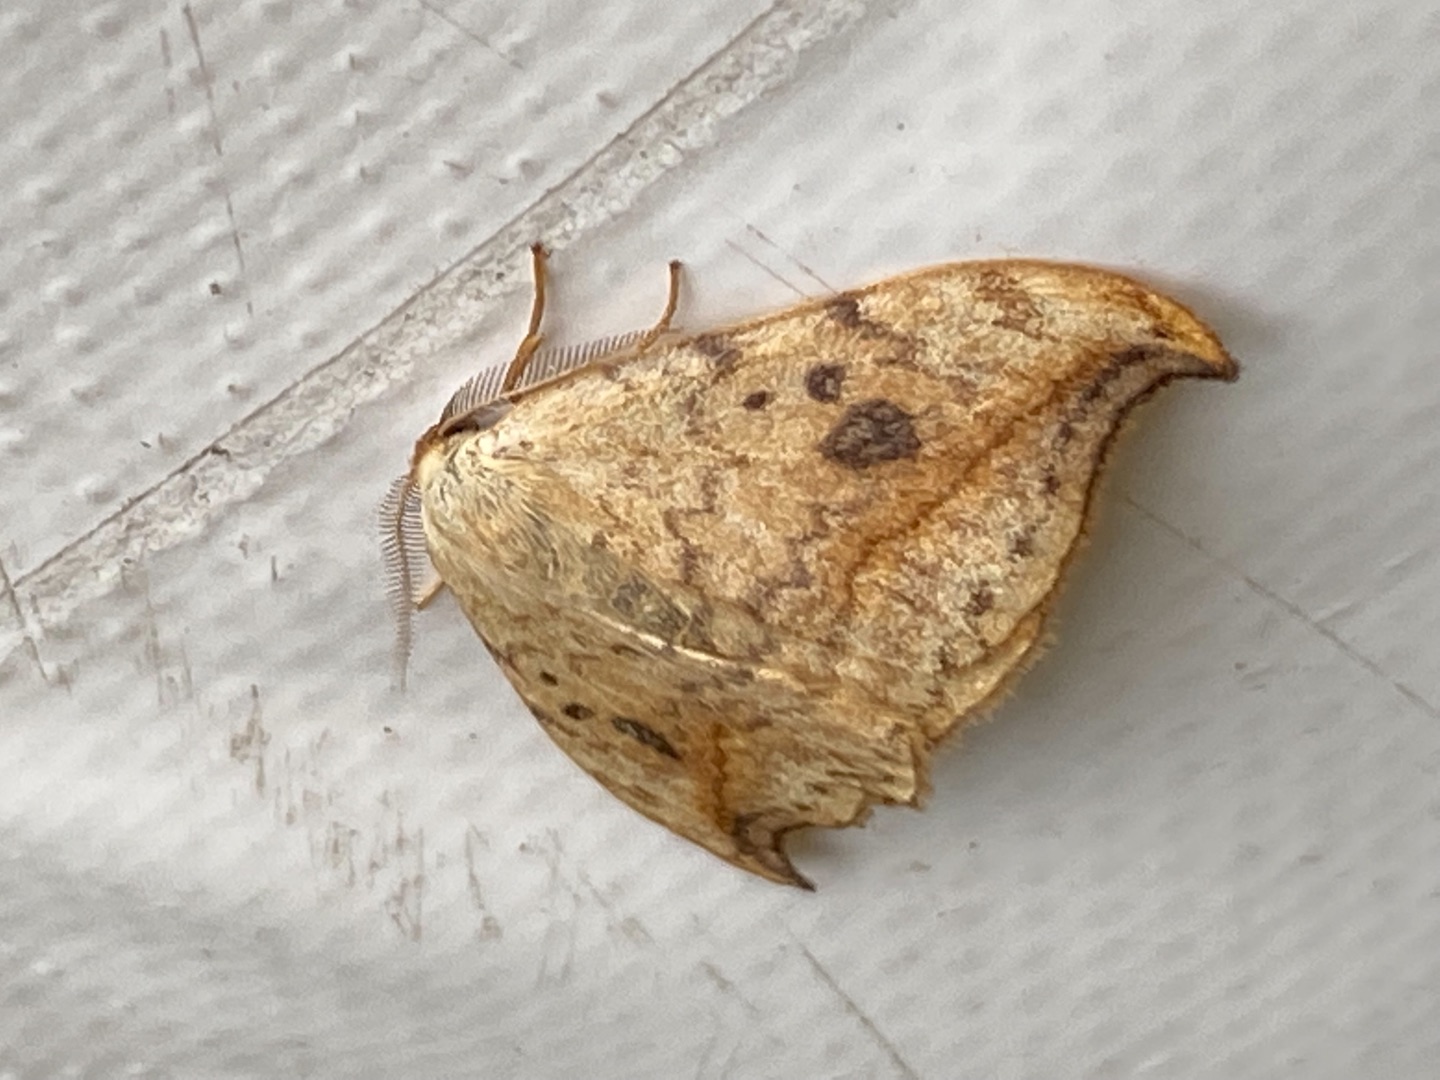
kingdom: Animalia
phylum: Arthropoda
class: Insecta
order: Lepidoptera
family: Drepanidae
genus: Drepana
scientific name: Drepana falcataria
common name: Birkeseglvinge
